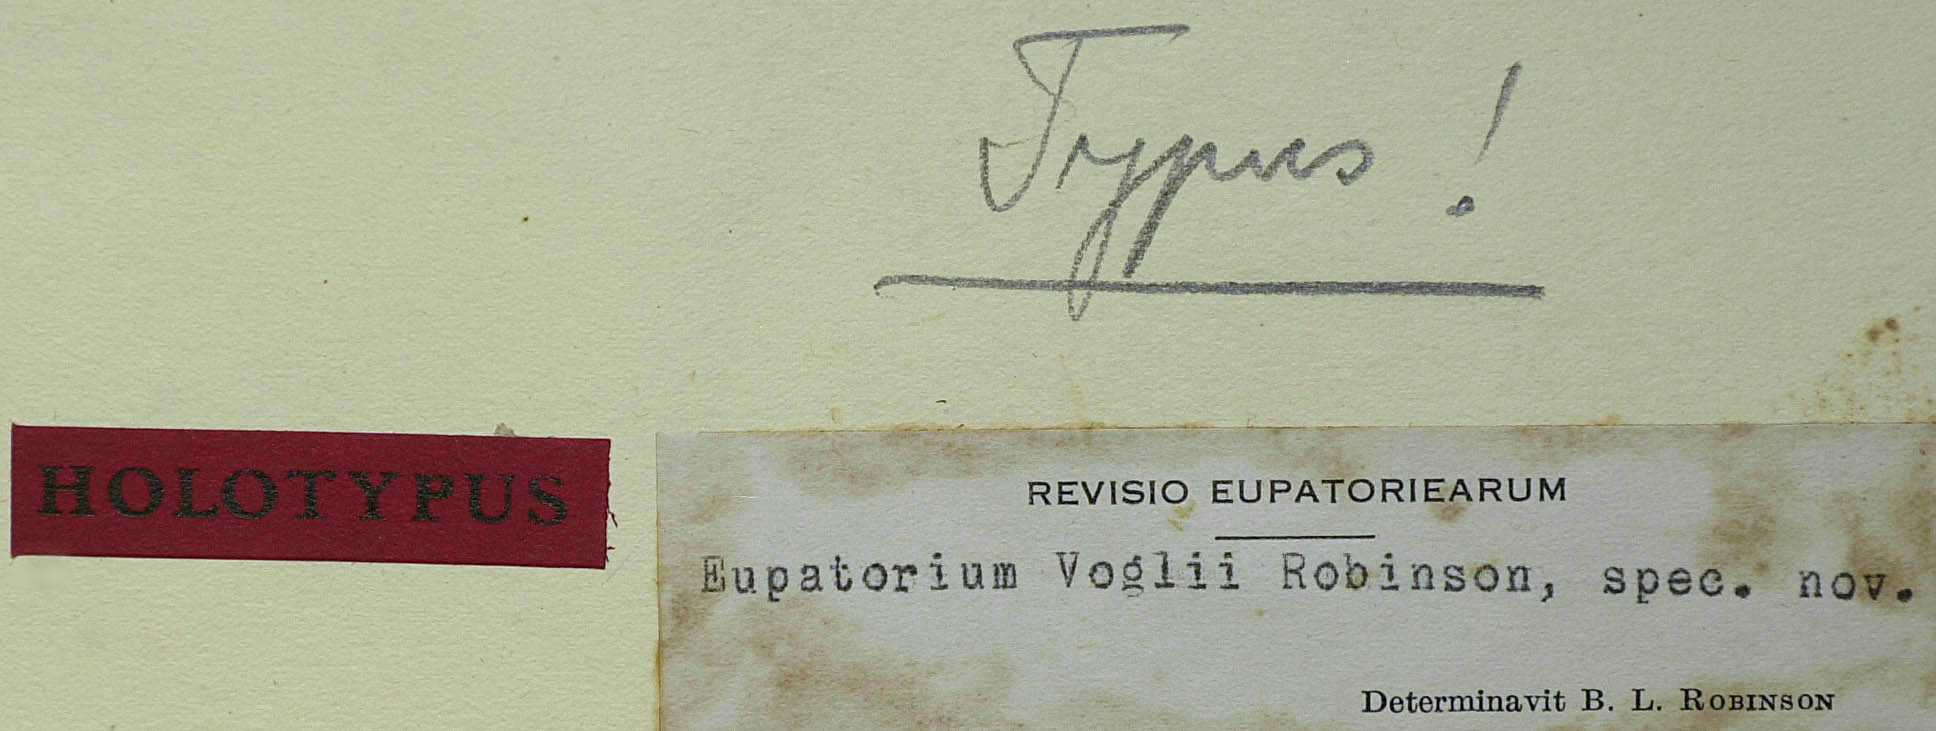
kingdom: Plantae
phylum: Tracheophyta
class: Magnoliopsida
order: Asterales
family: Asteraceae
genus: Chromolaena
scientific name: Chromolaena voglii
